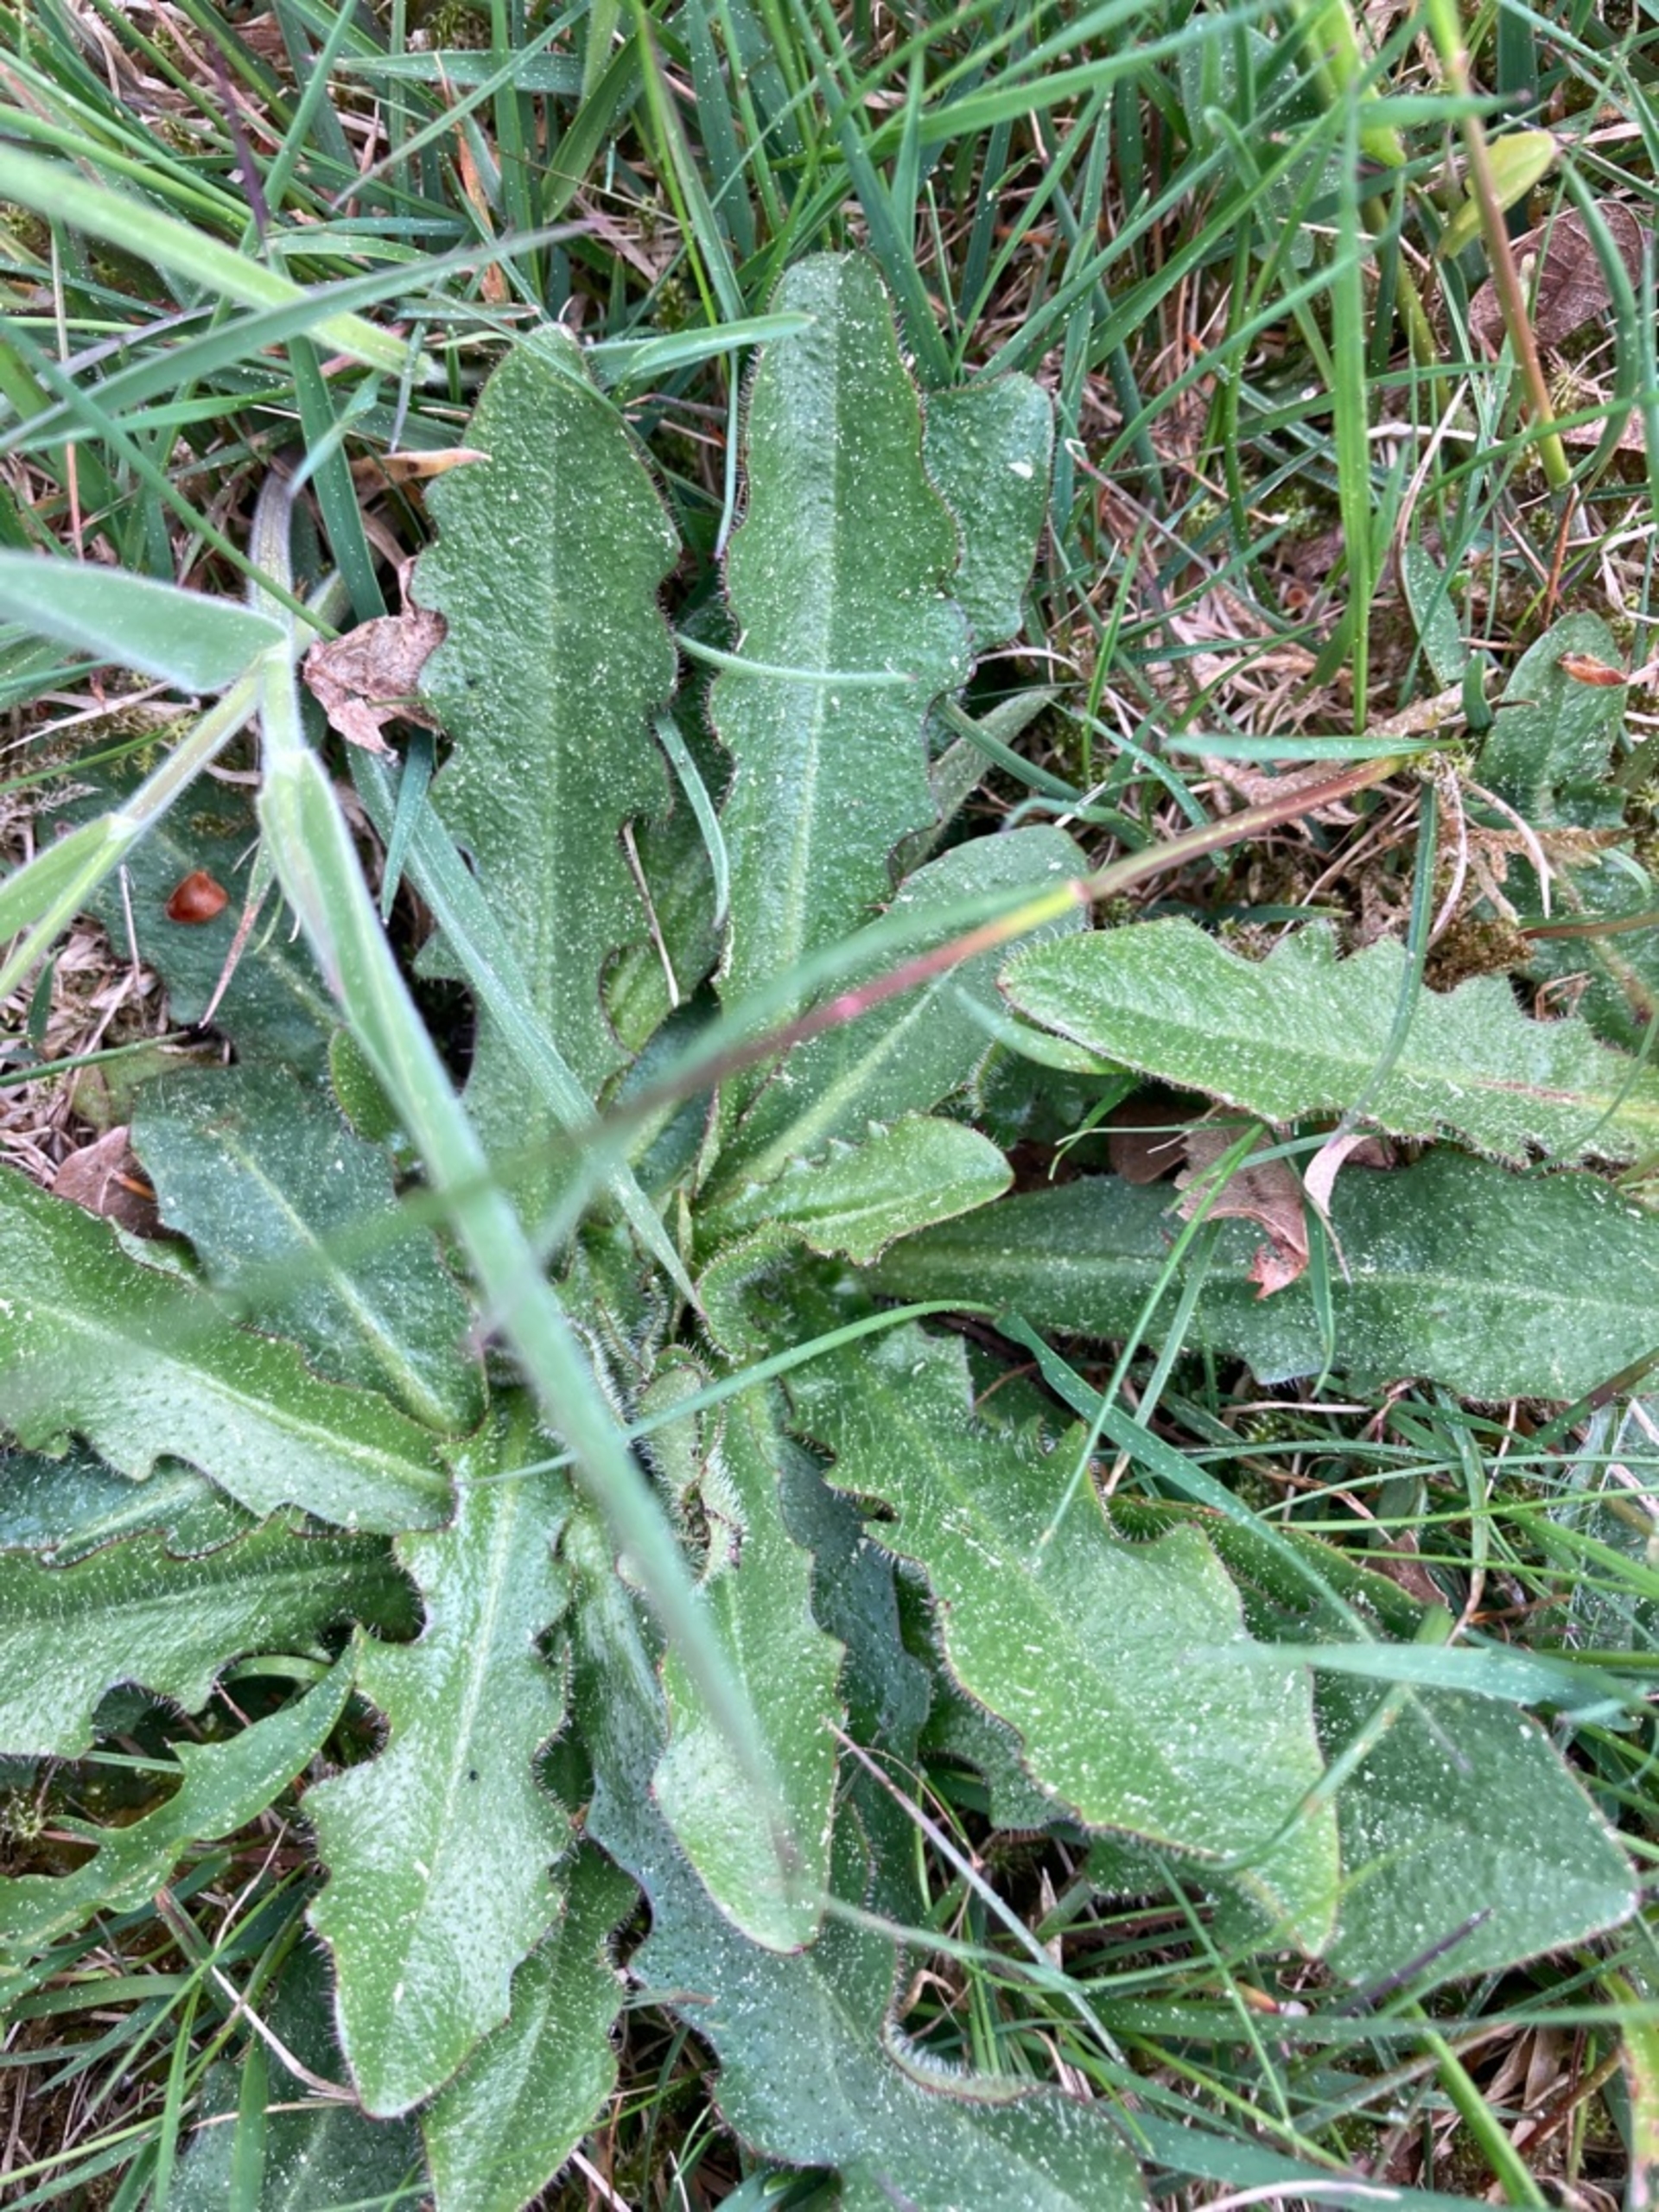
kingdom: Plantae
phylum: Tracheophyta
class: Magnoliopsida
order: Asterales
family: Asteraceae
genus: Hypochaeris
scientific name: Hypochaeris radicata
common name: Almindelig kongepen
